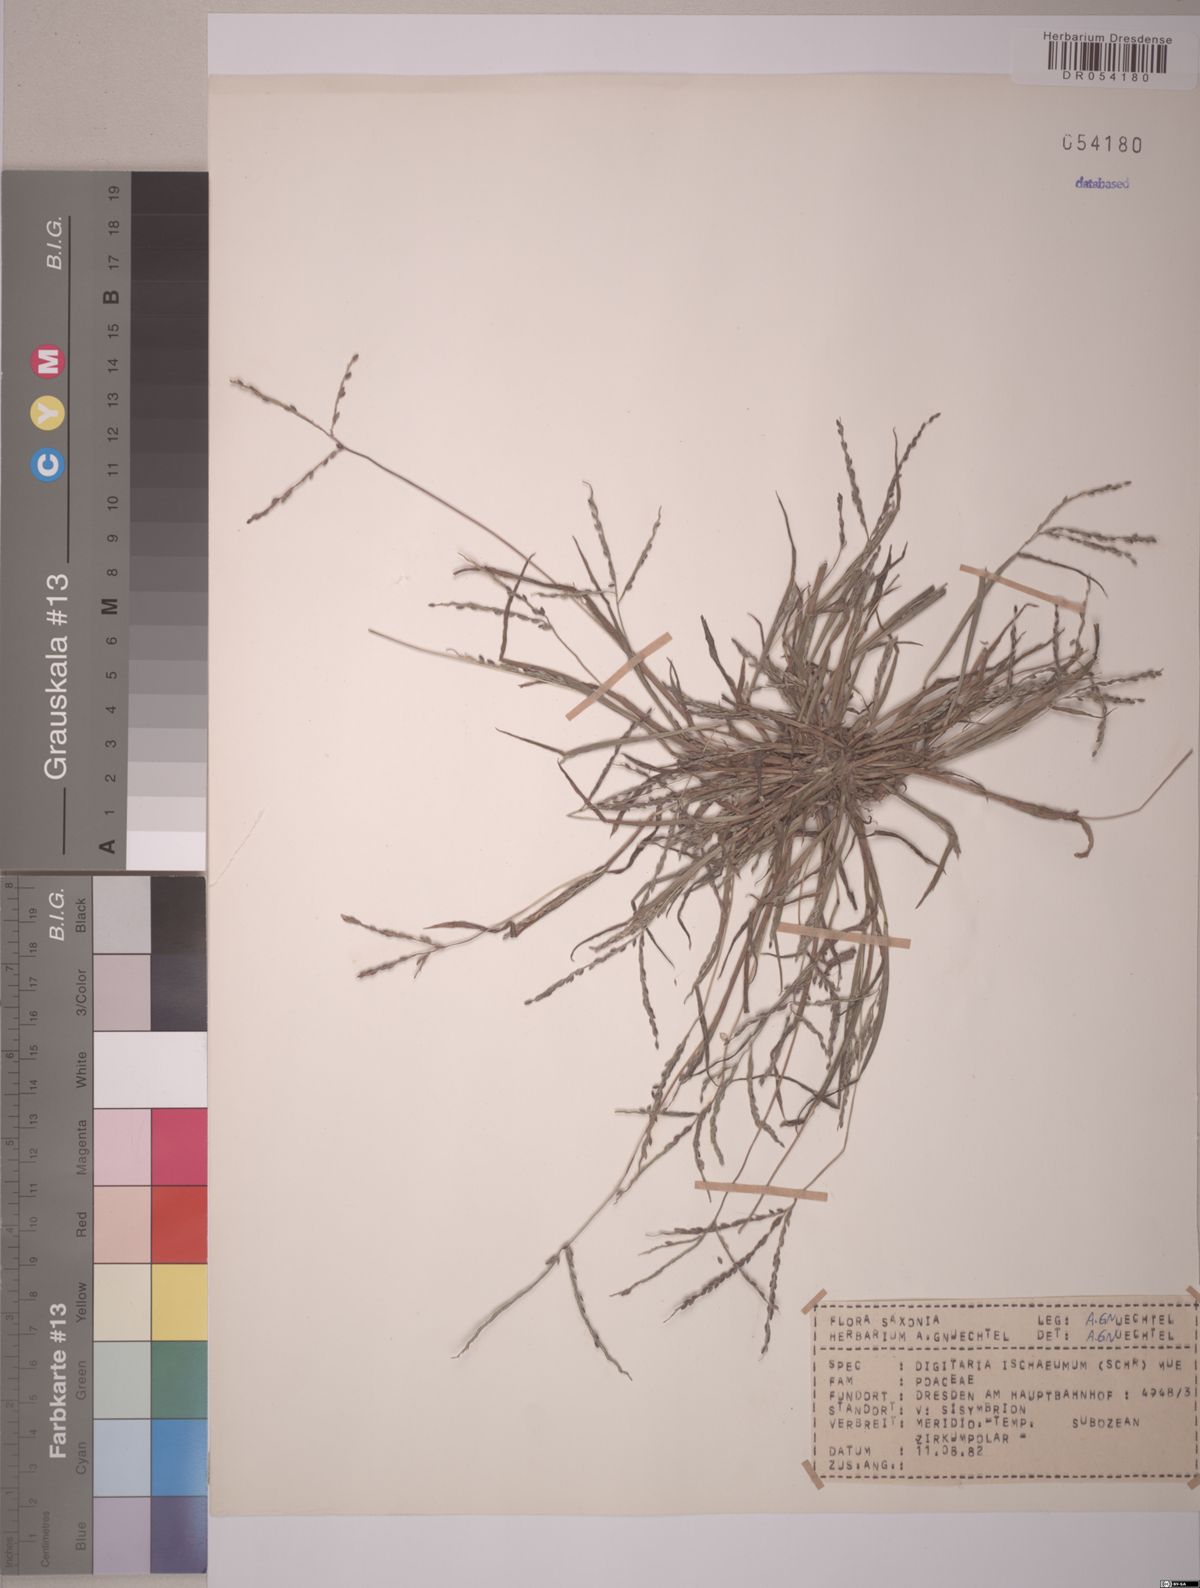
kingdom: Plantae
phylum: Tracheophyta
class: Liliopsida
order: Poales
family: Poaceae
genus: Digitaria
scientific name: Digitaria ischaemum
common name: Smooth crabgrass
